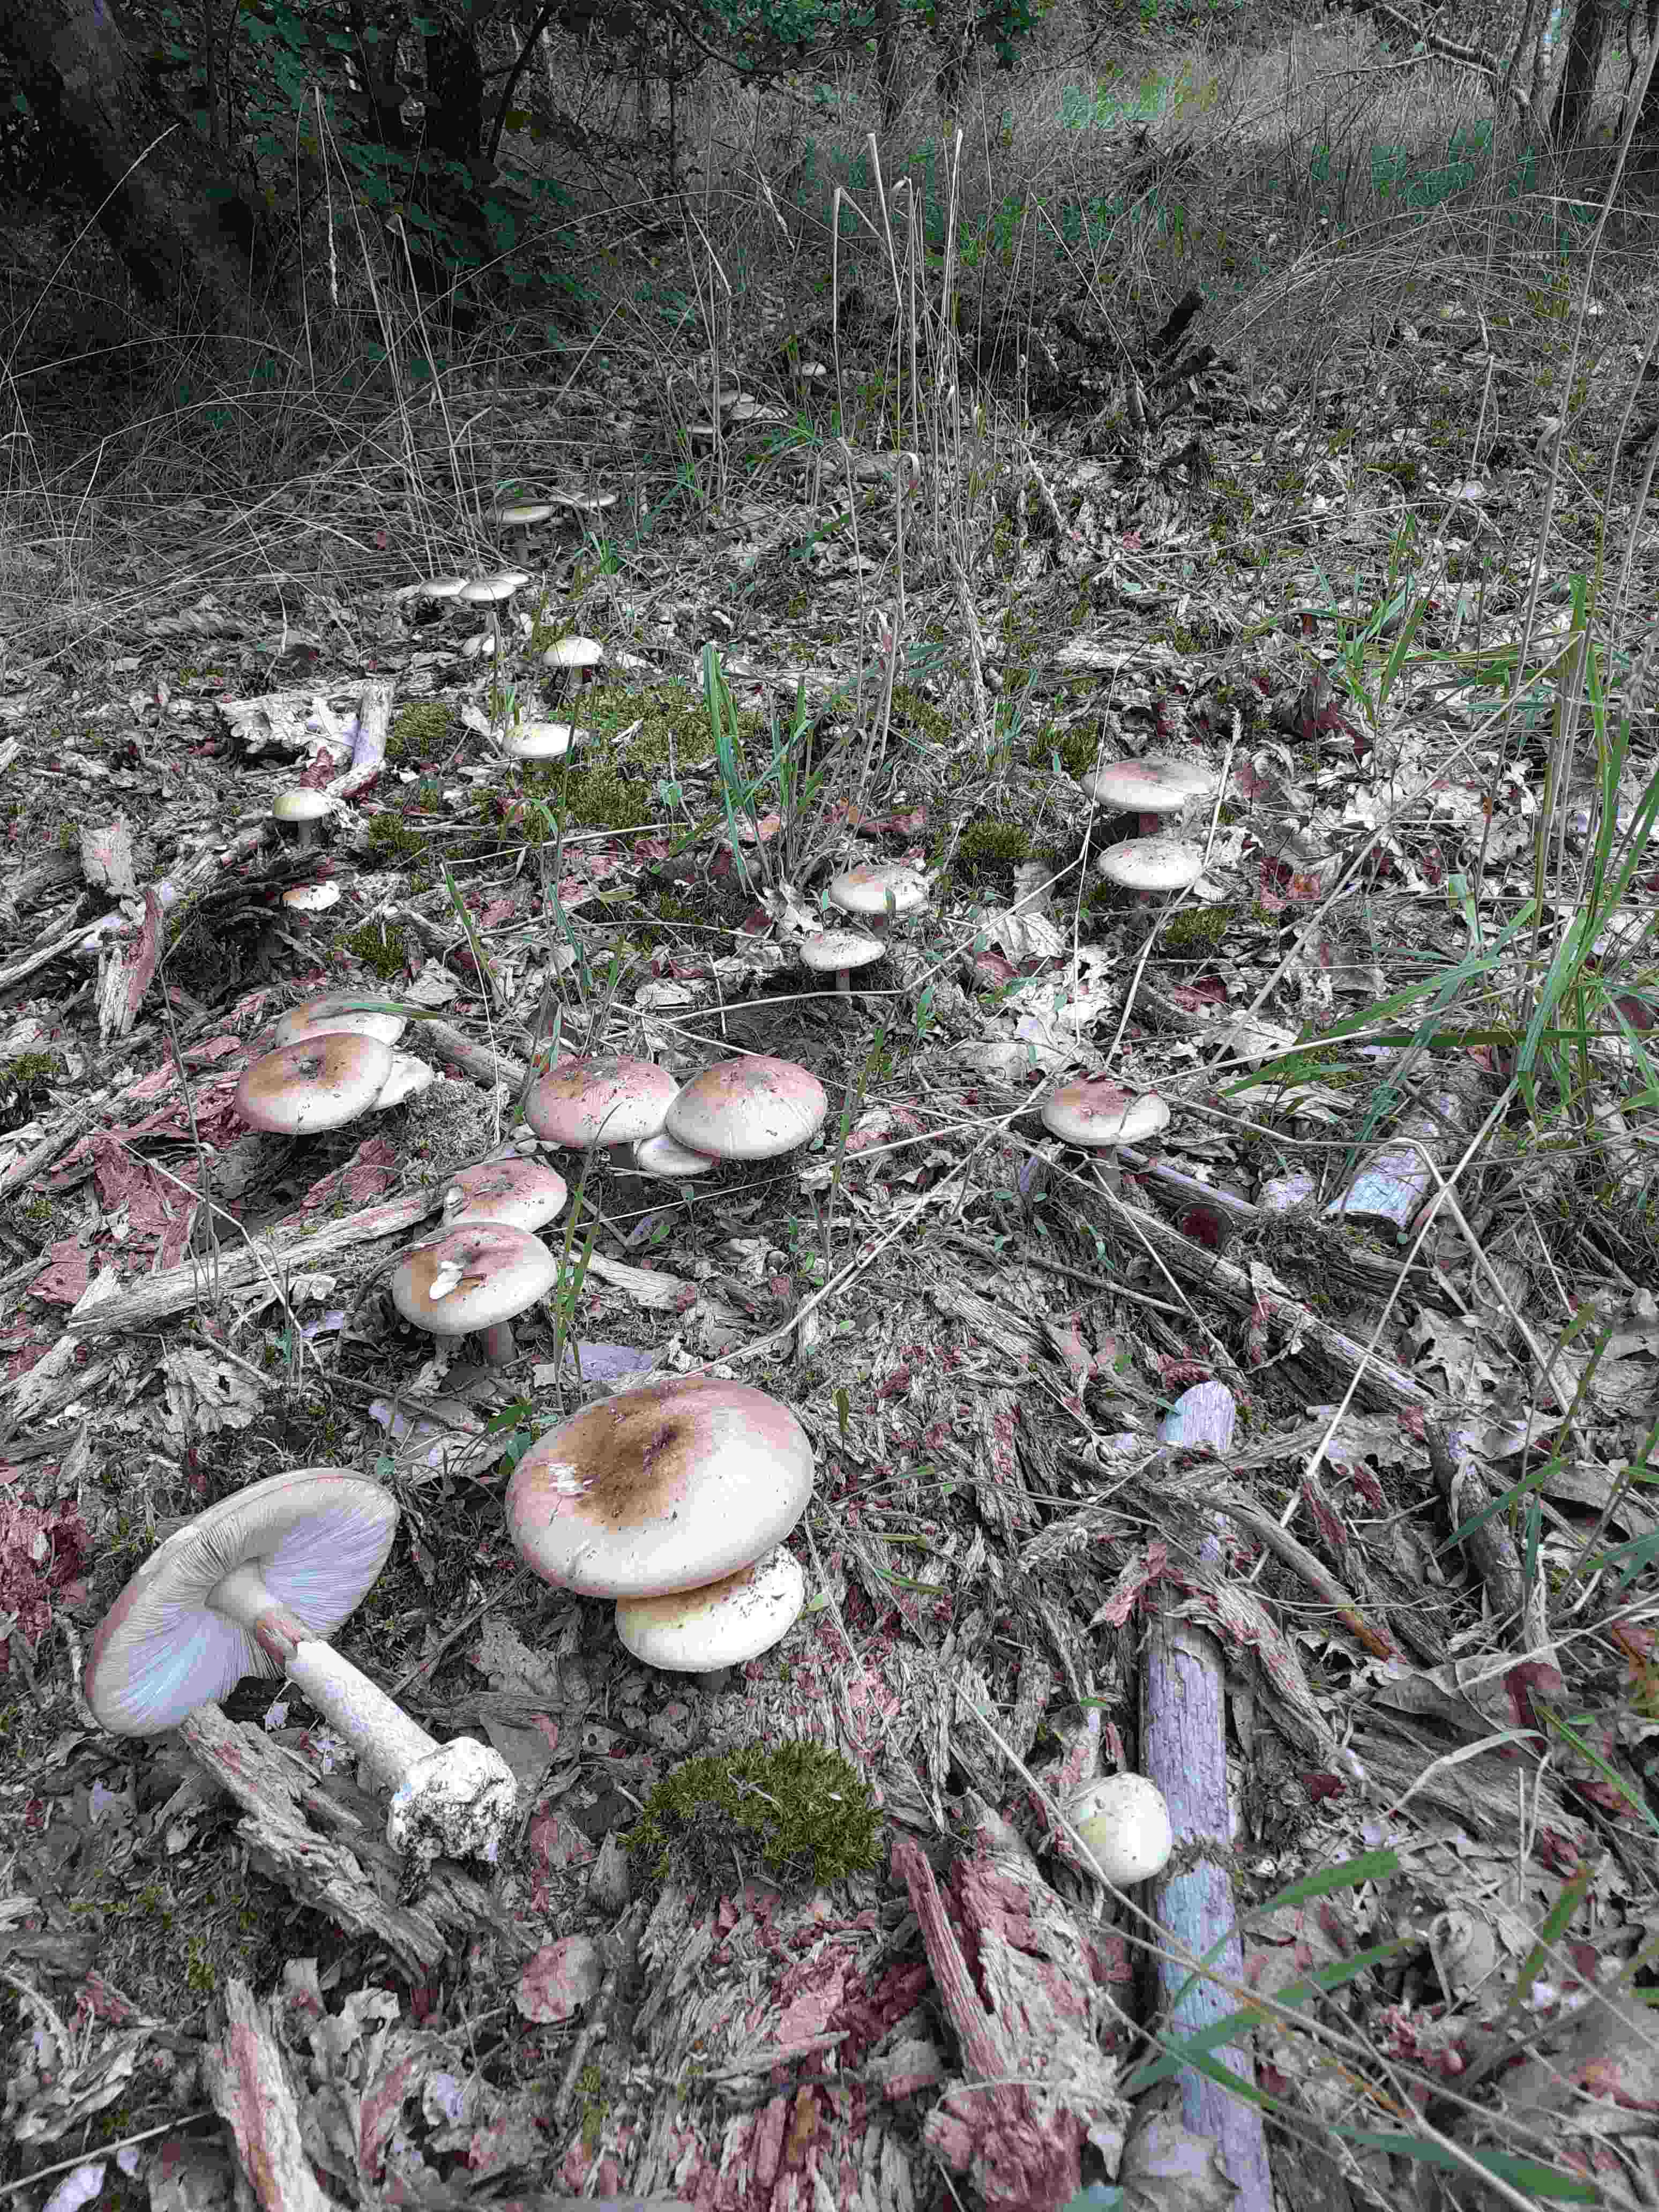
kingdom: Fungi
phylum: Basidiomycota
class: Agaricomycetes
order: Agaricales
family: Amanitaceae
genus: Amanita
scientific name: Amanita phalloides
